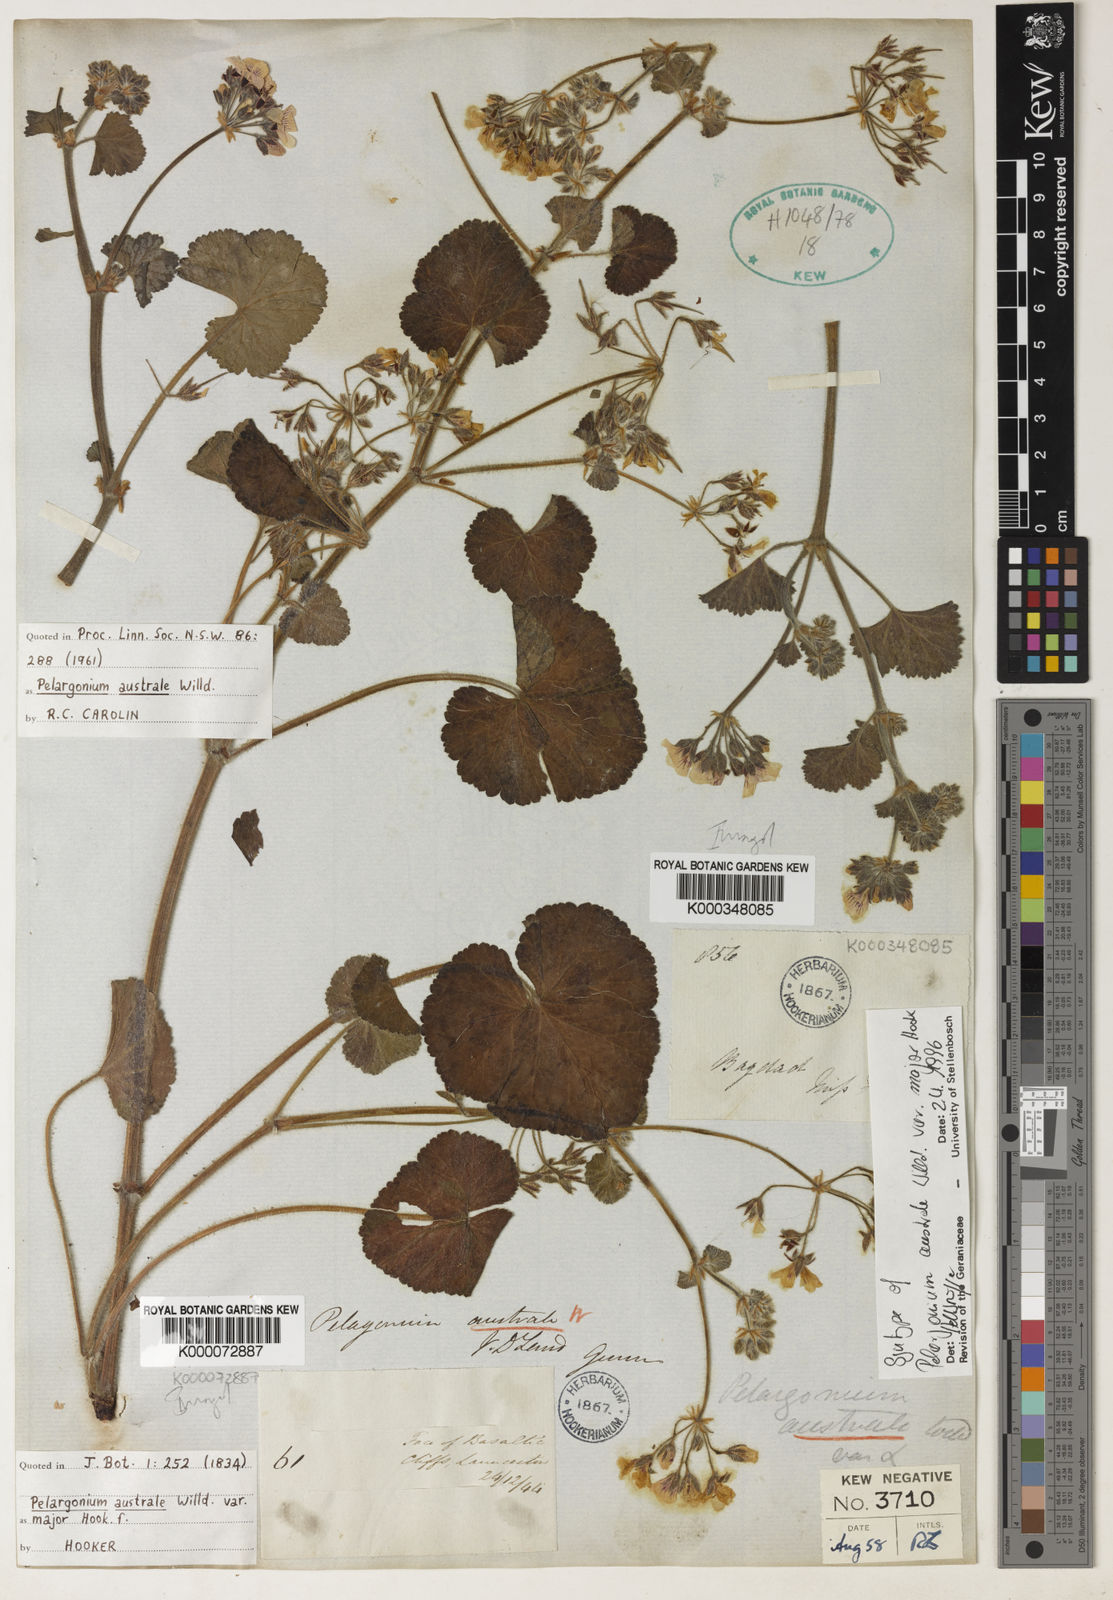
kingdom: Plantae
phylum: Tracheophyta
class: Magnoliopsida
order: Geraniales
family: Geraniaceae
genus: Pelargonium
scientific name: Pelargonium australe
